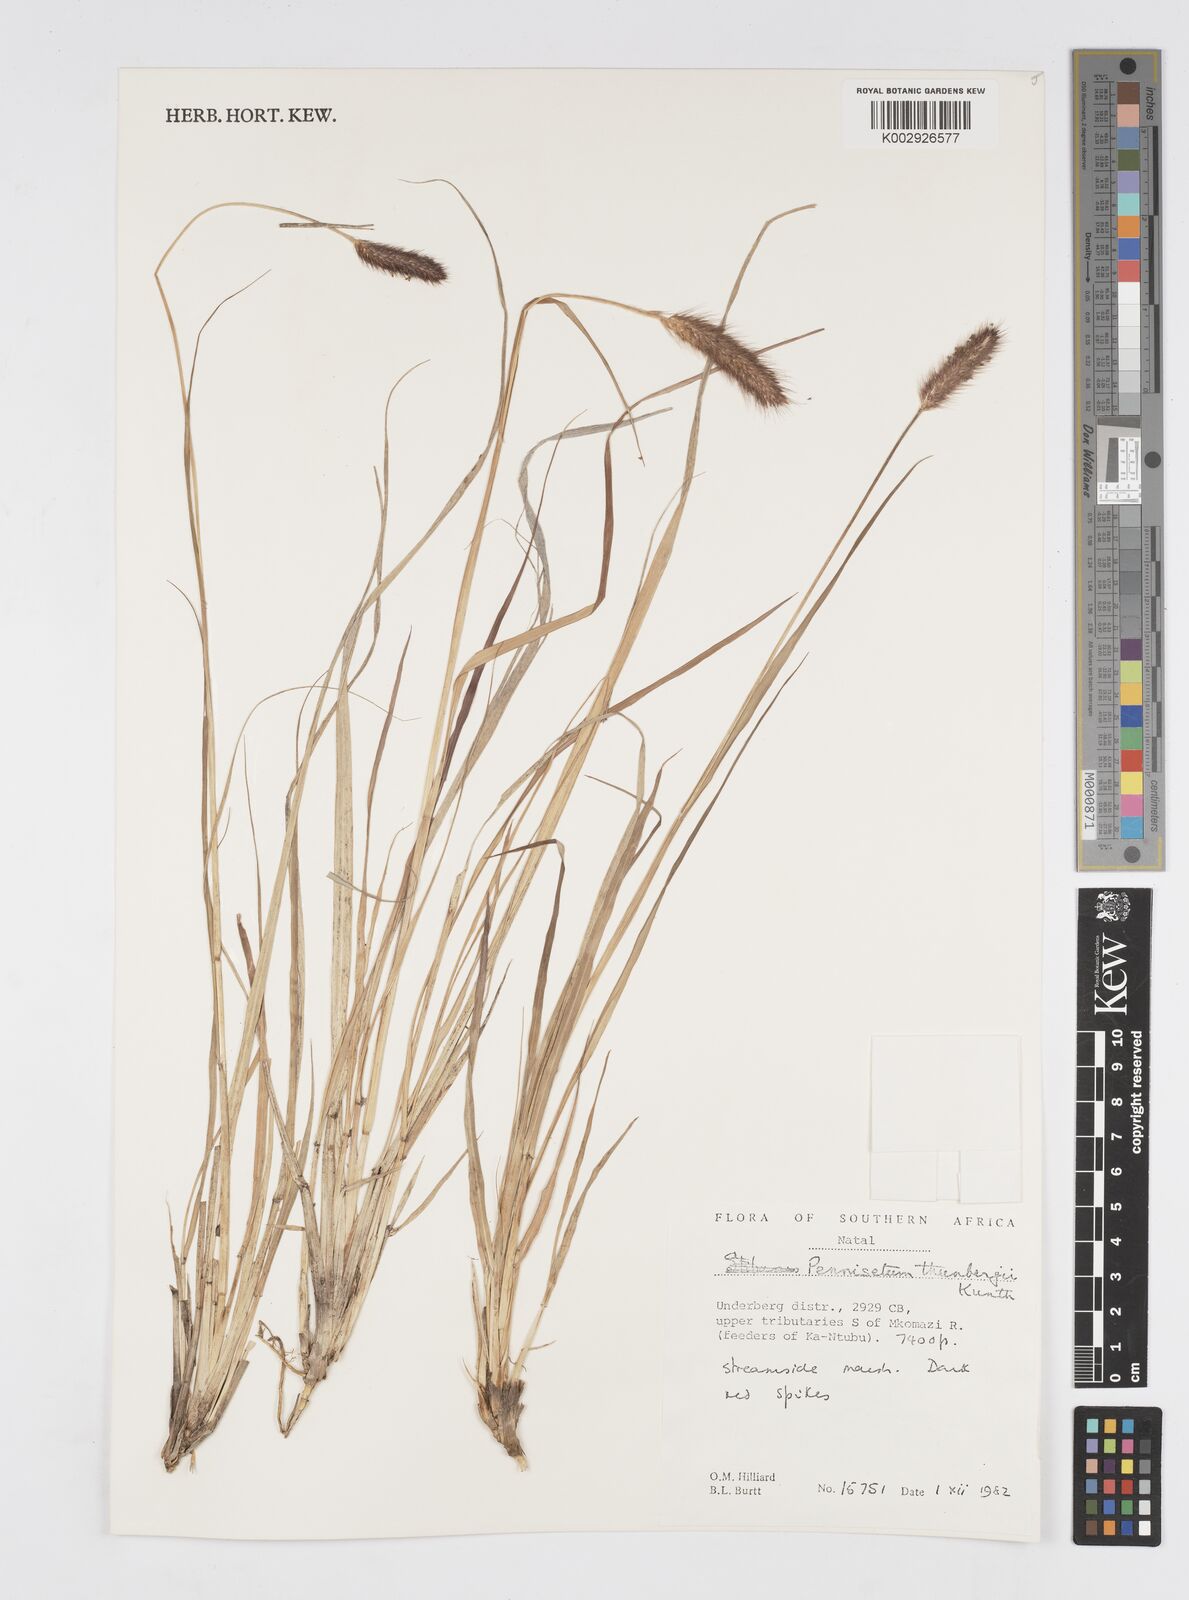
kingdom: Plantae
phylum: Tracheophyta
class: Liliopsida
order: Poales
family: Poaceae
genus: Cenchrus
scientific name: Cenchrus geniculatus
